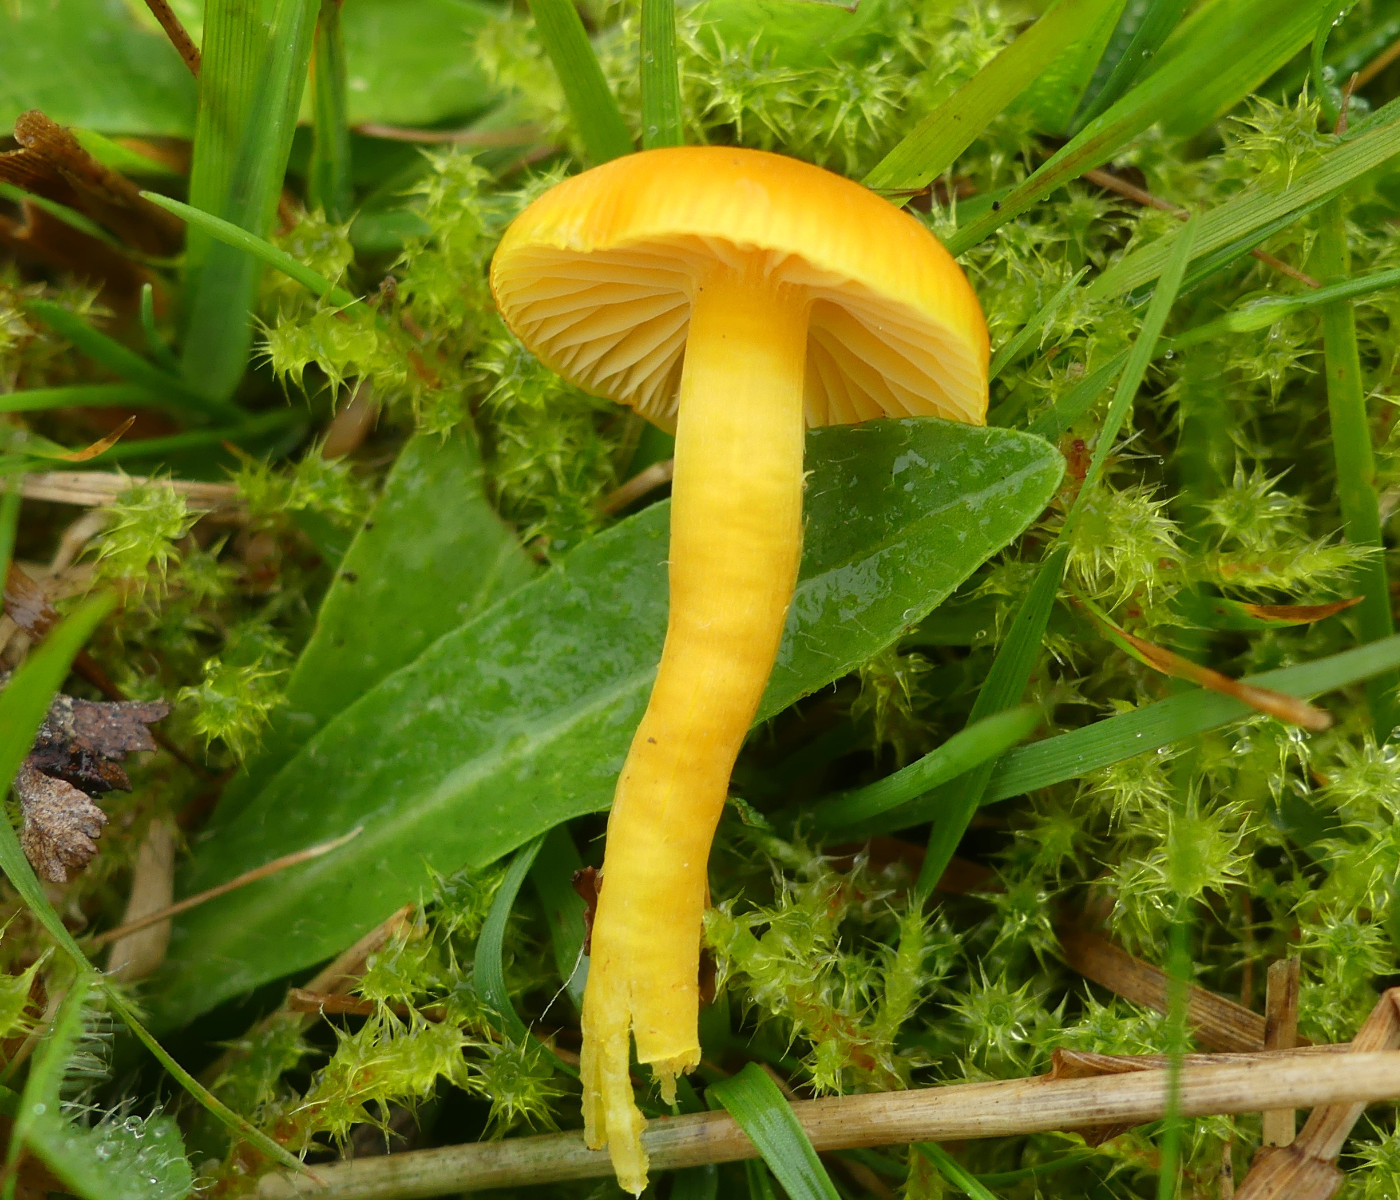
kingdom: Fungi
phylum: Basidiomycota
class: Agaricomycetes
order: Agaricales
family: Hygrophoraceae
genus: Hygrocybe
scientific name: Hygrocybe ceracea
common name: voksgul vokshat
